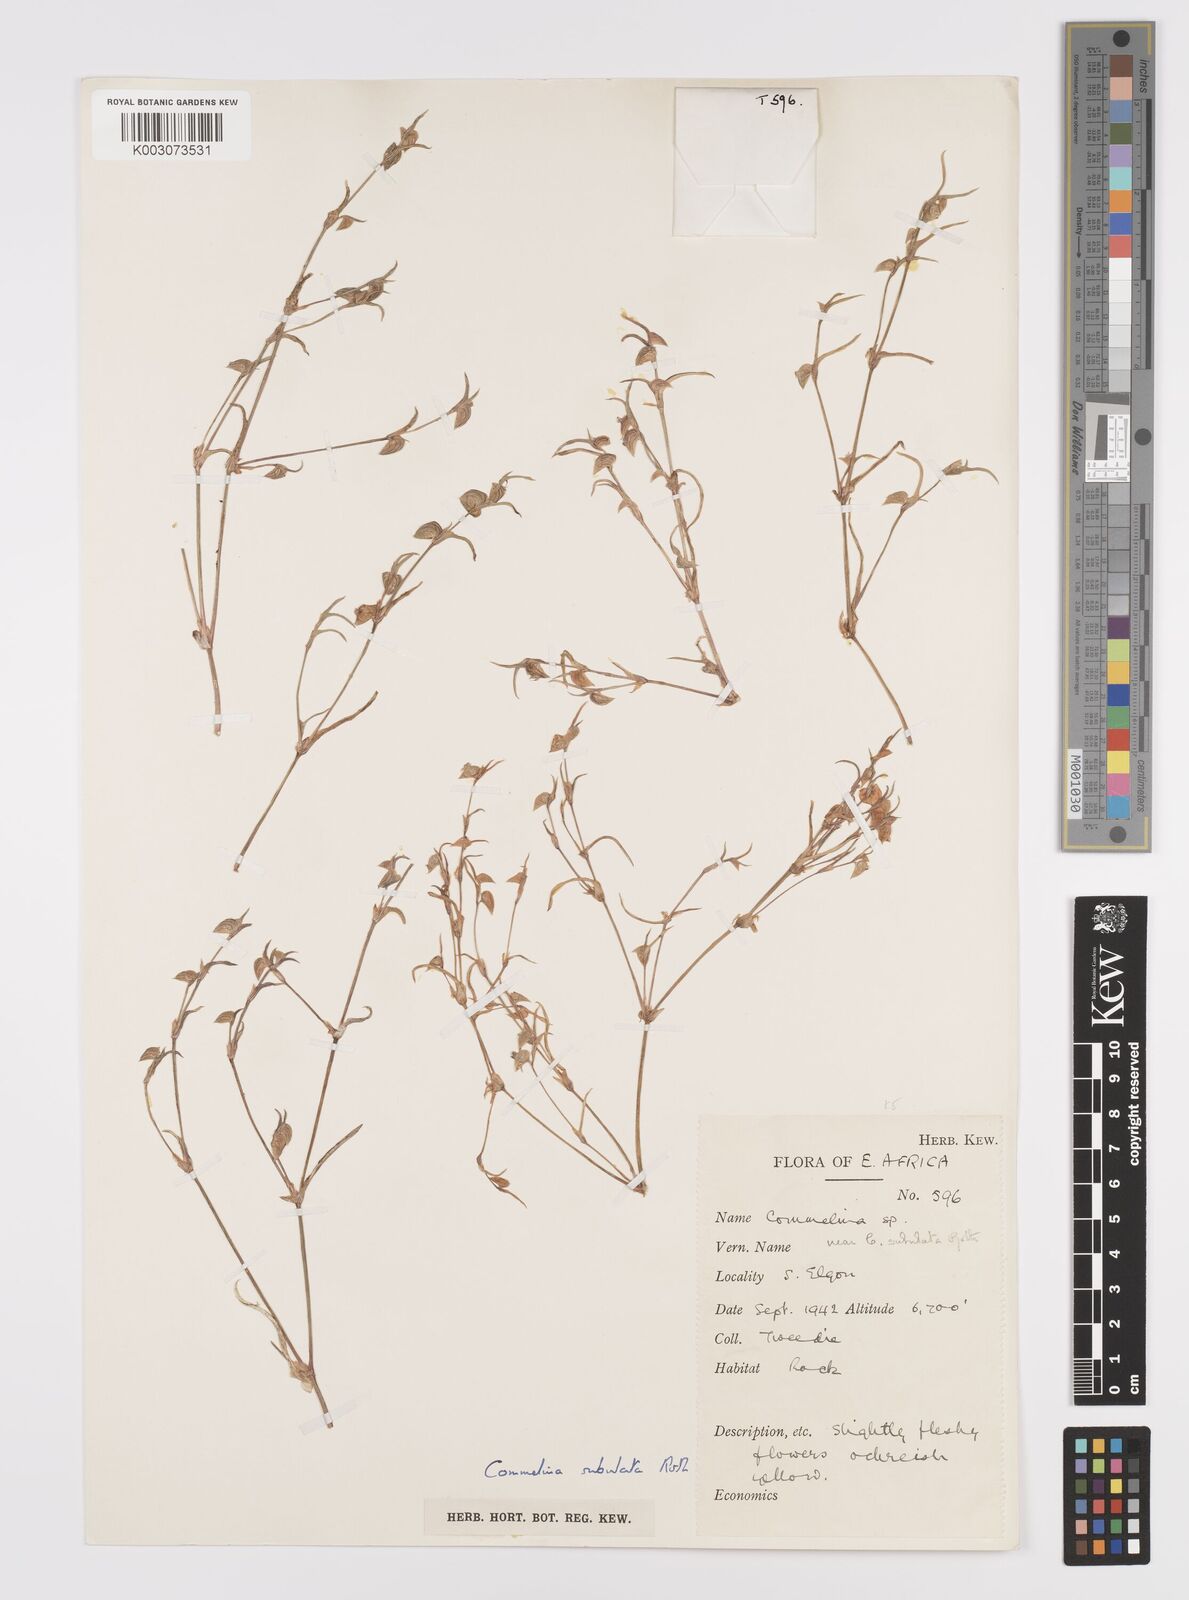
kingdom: Plantae
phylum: Tracheophyta
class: Liliopsida
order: Commelinales
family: Commelinaceae
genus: Commelina
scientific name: Commelina subulata
